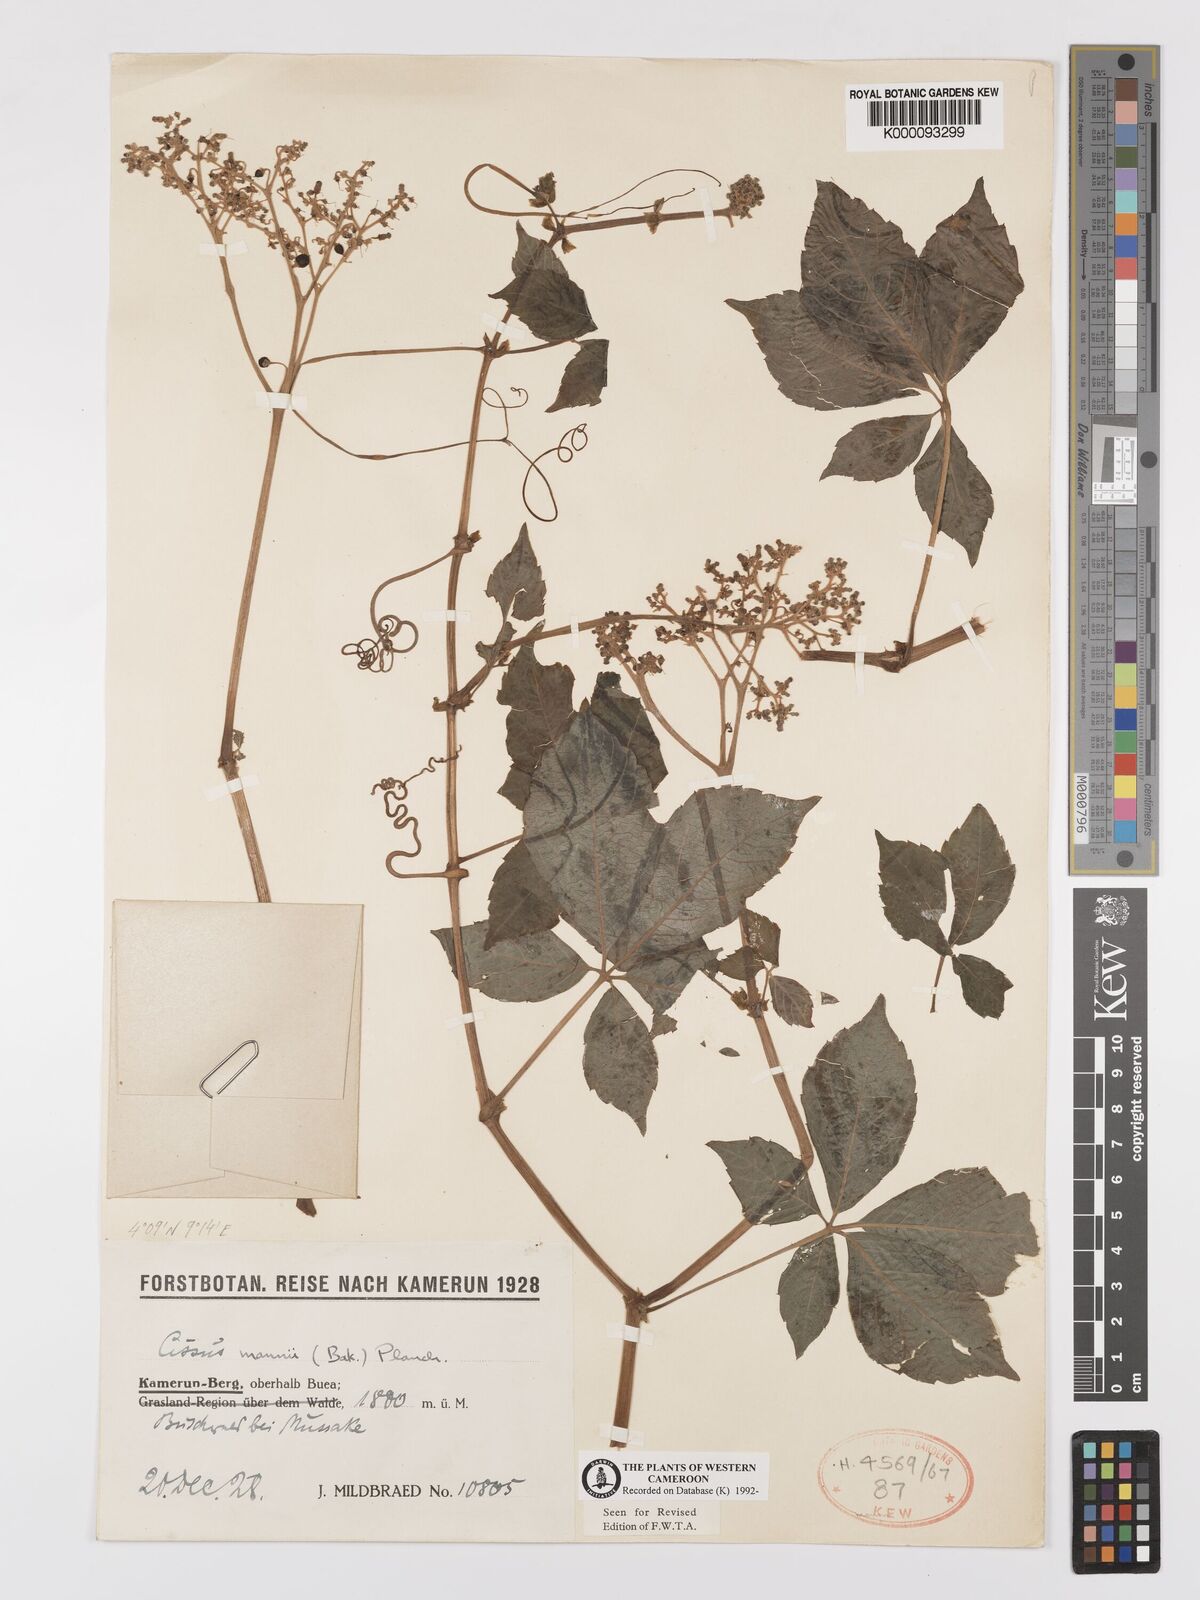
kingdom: Plantae
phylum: Tracheophyta
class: Magnoliopsida
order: Vitales
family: Vitaceae
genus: Cyphostemma
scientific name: Cyphostemma mannii
